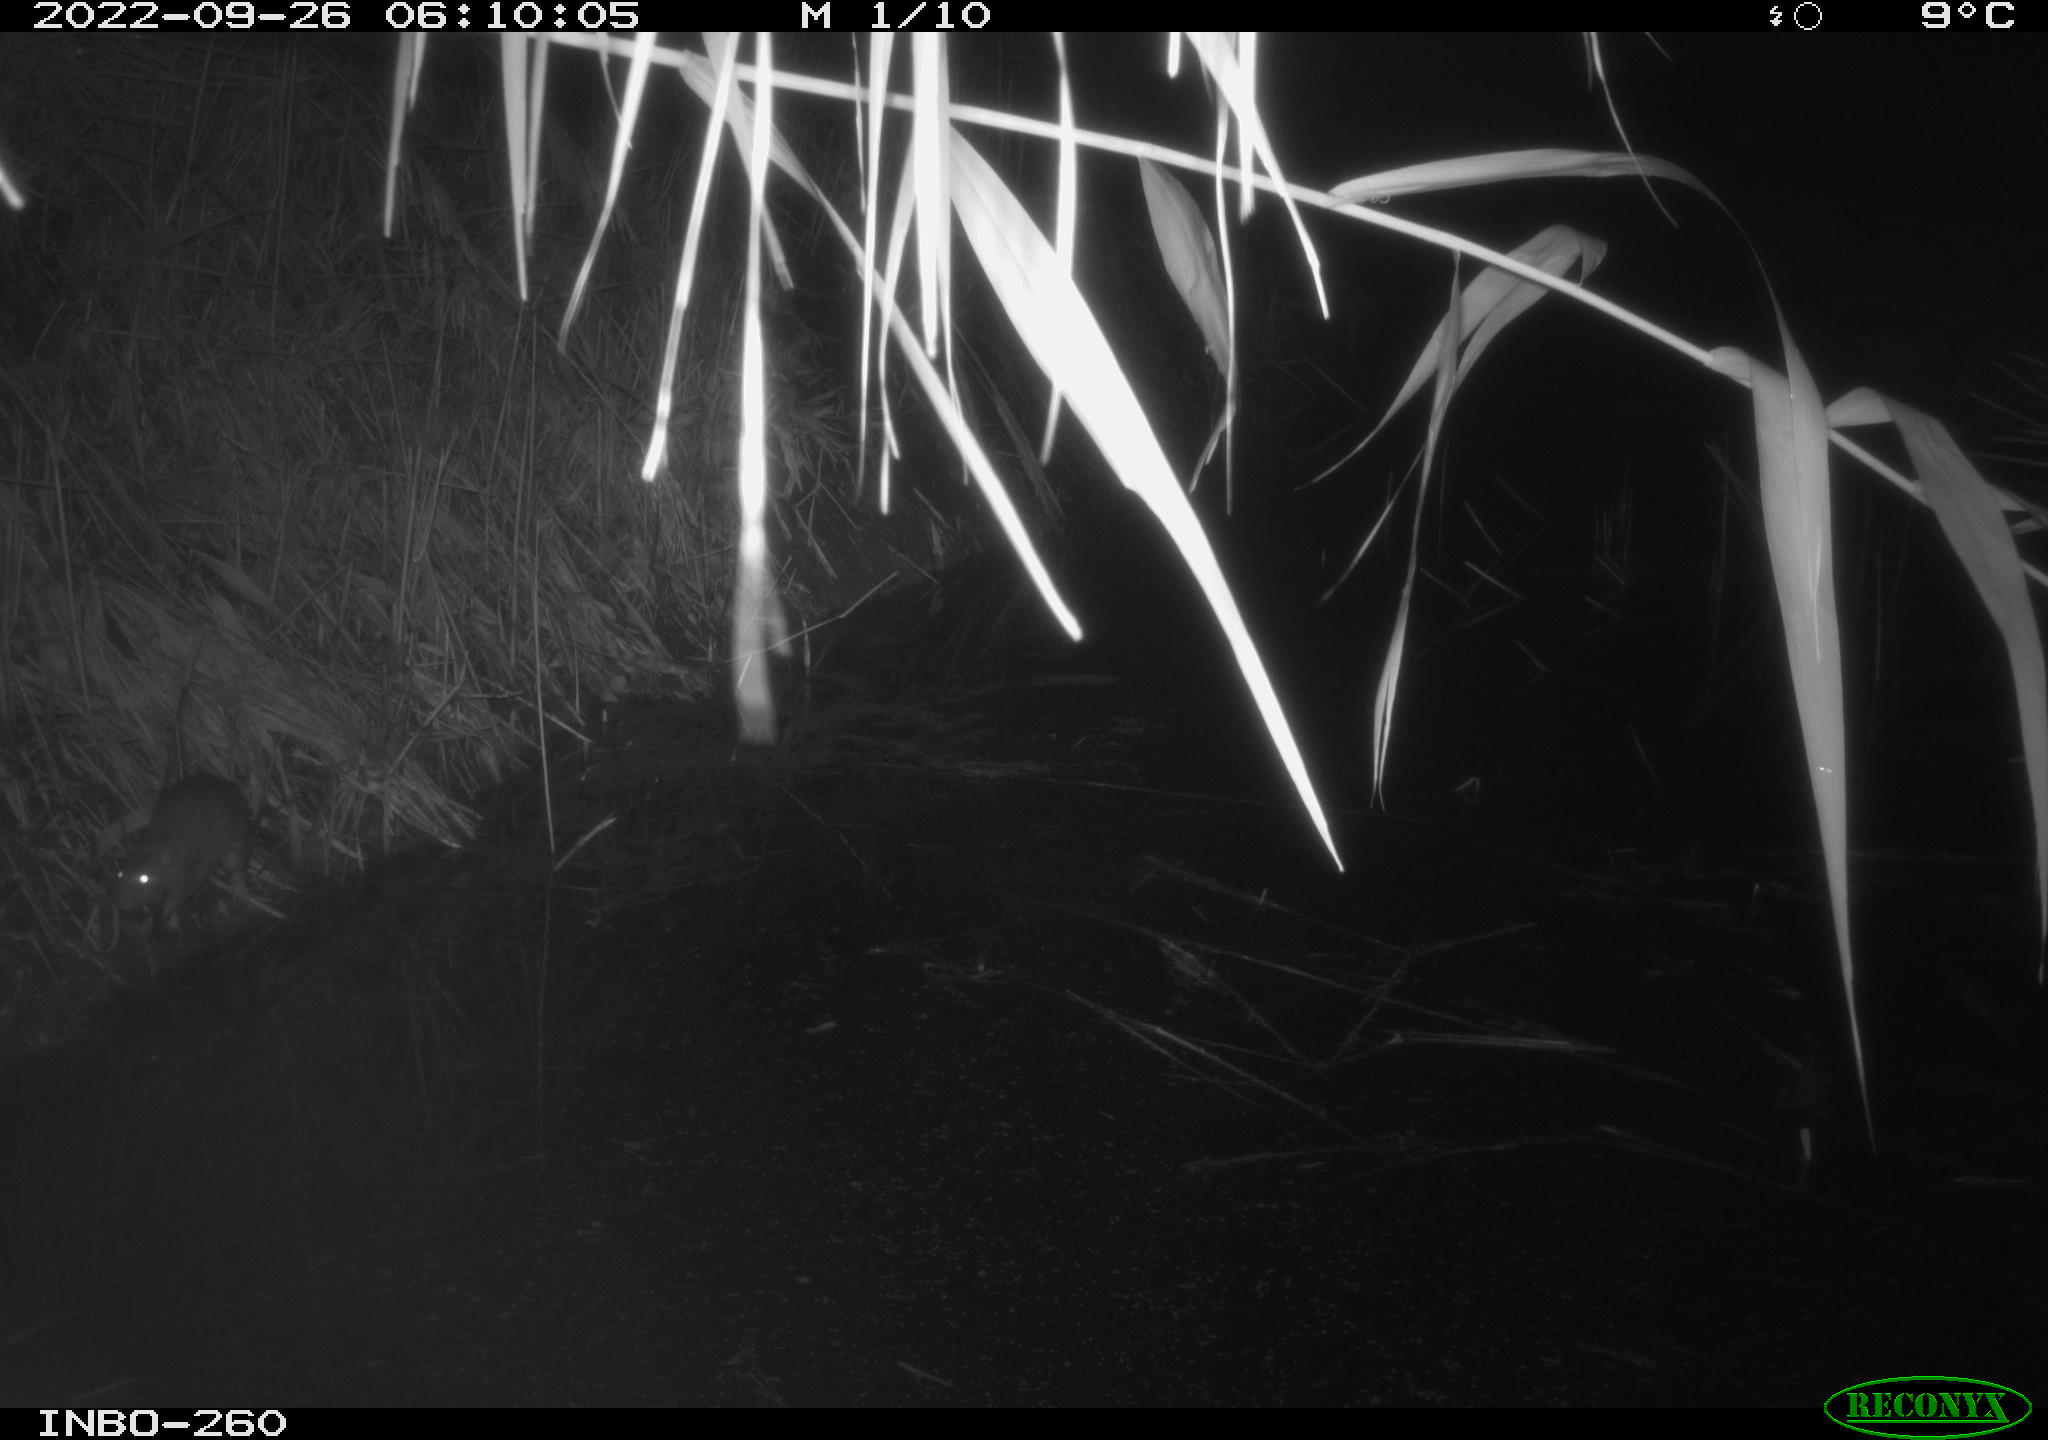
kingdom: Animalia
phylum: Chordata
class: Mammalia
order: Rodentia
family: Muridae
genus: Rattus
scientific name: Rattus norvegicus
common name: Brown rat
